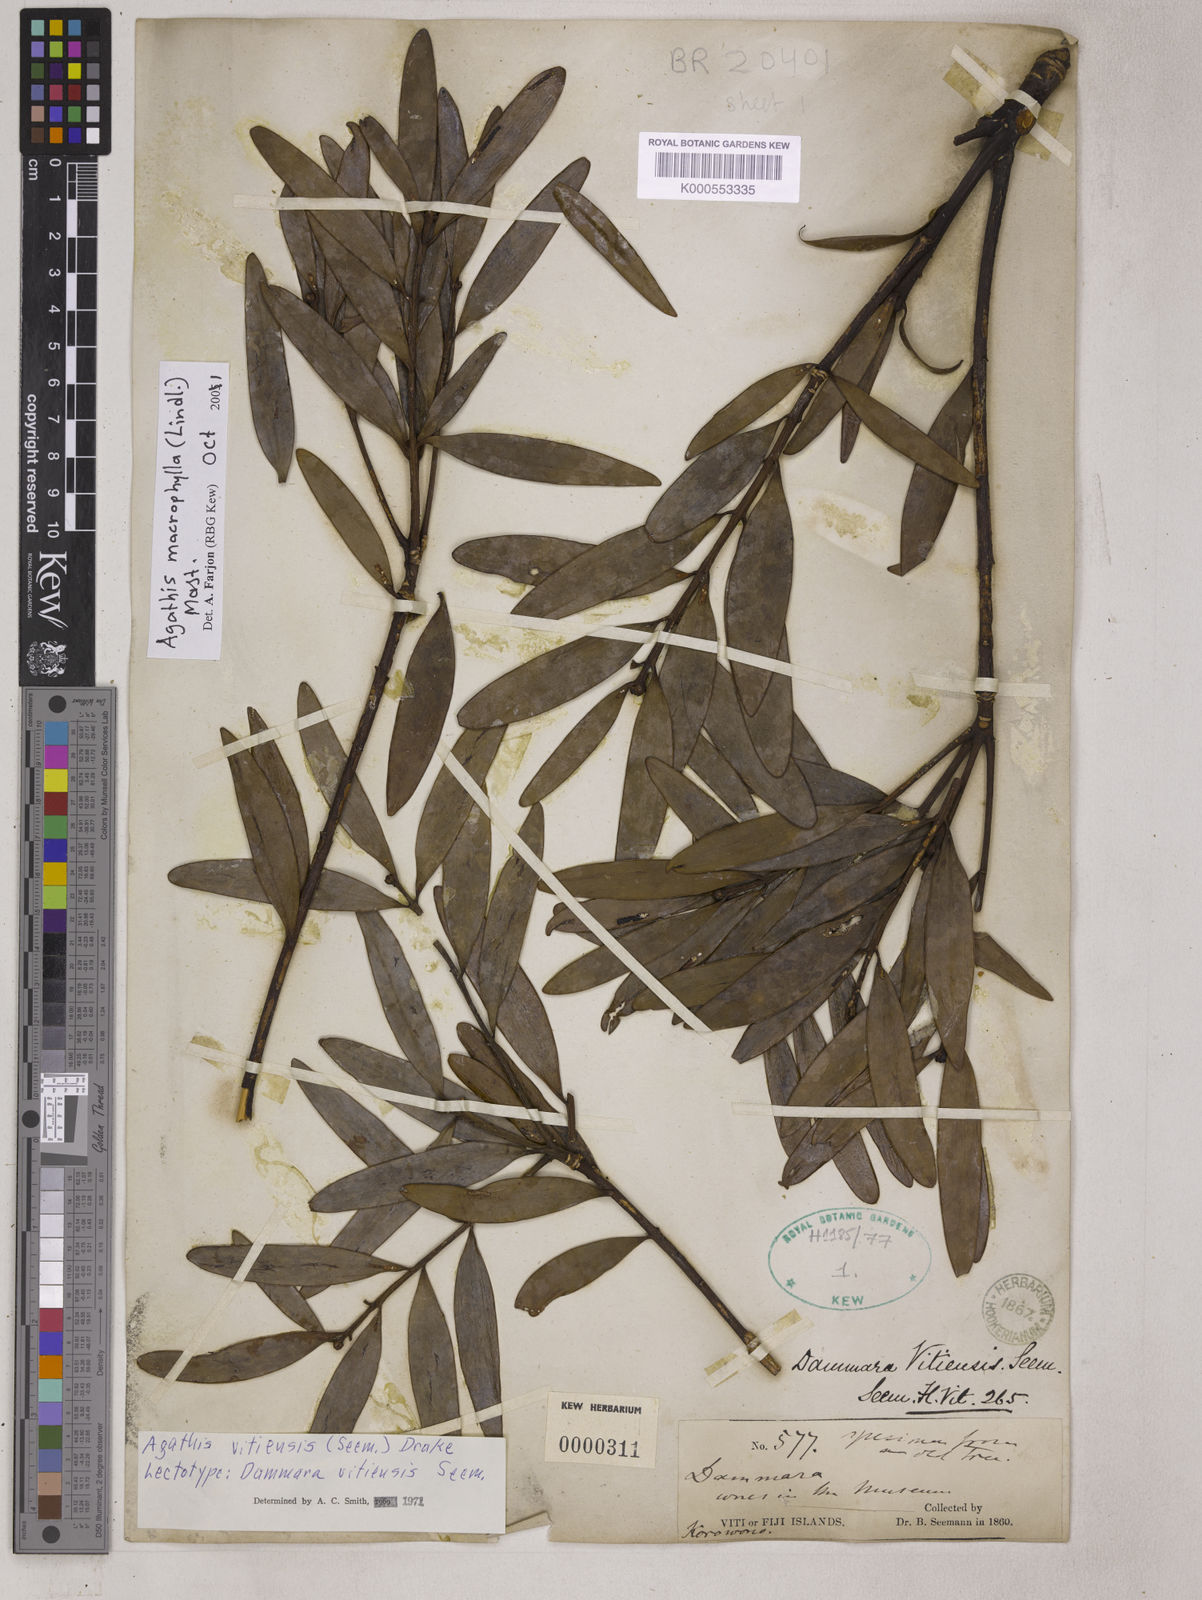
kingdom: Plantae
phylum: Tracheophyta
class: Pinopsida
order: Pinales
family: Araucariaceae
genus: Agathis
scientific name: Agathis macrophylla
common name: Fijian kauri pine
